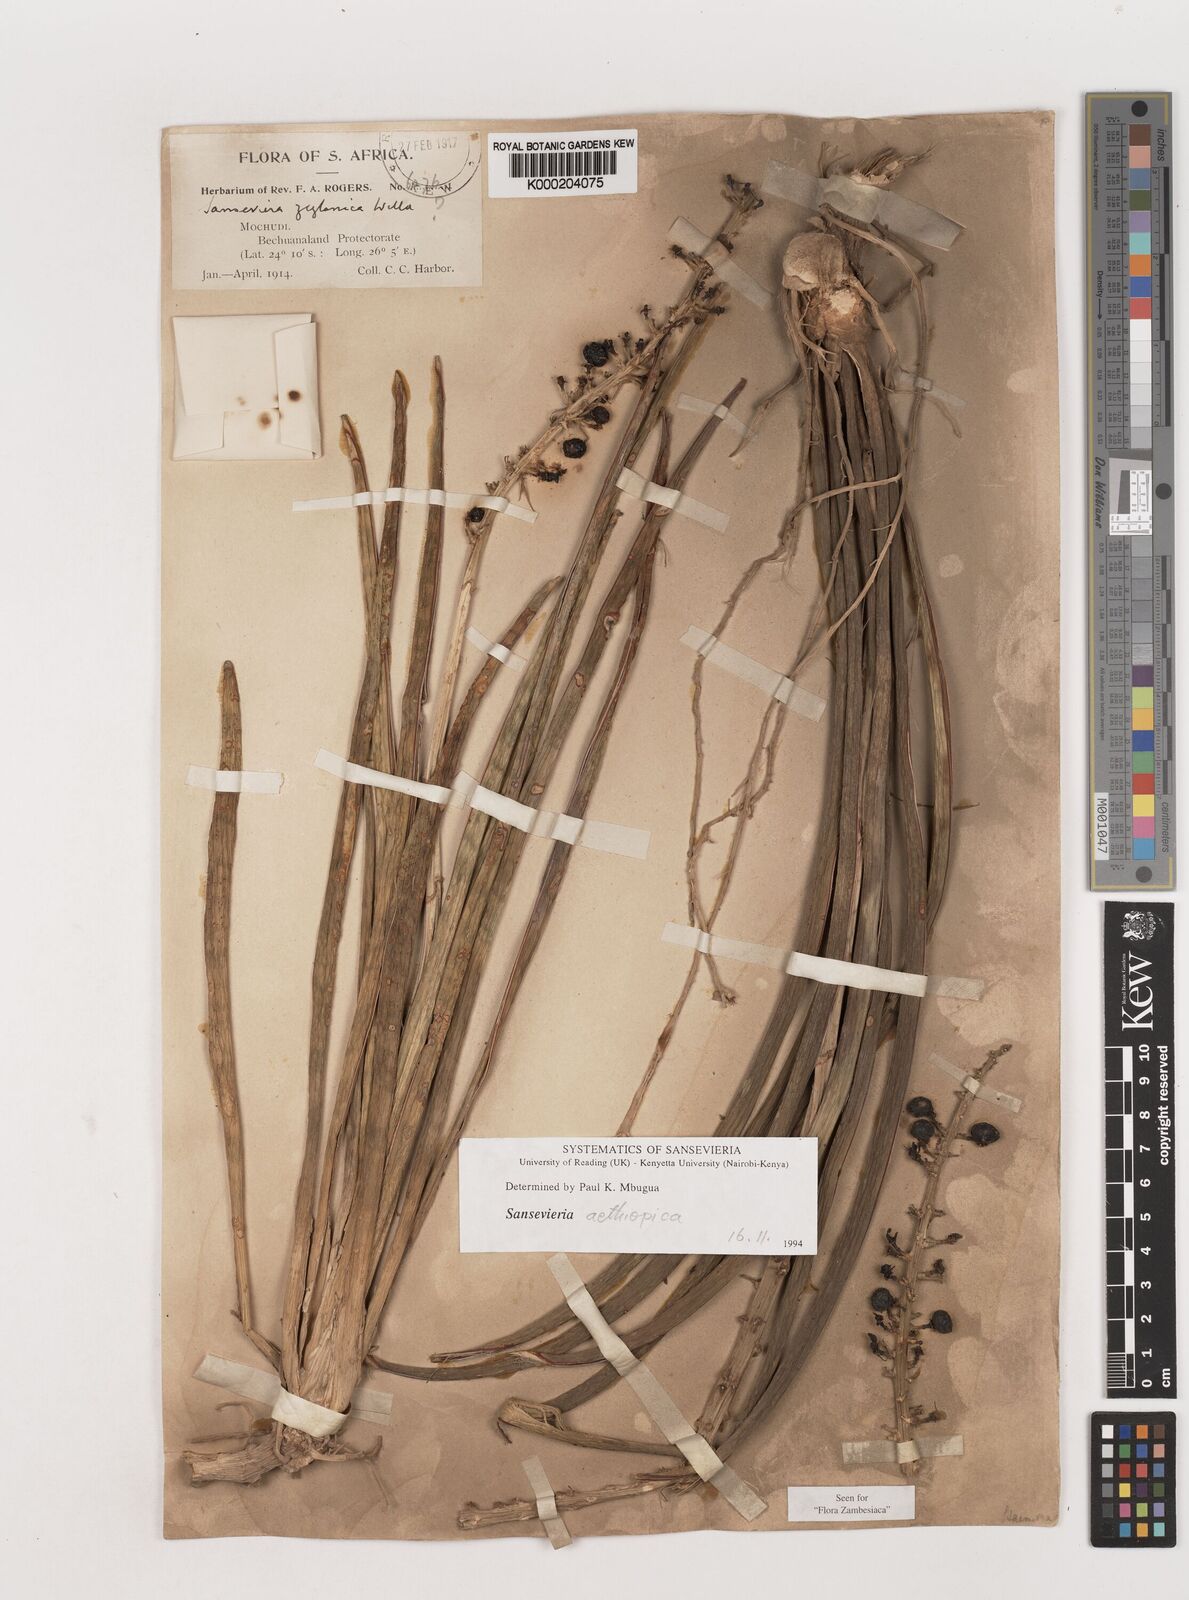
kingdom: Plantae
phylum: Tracheophyta
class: Liliopsida
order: Asparagales
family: Asparagaceae
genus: Dracaena
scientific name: Dracaena aethiopica
